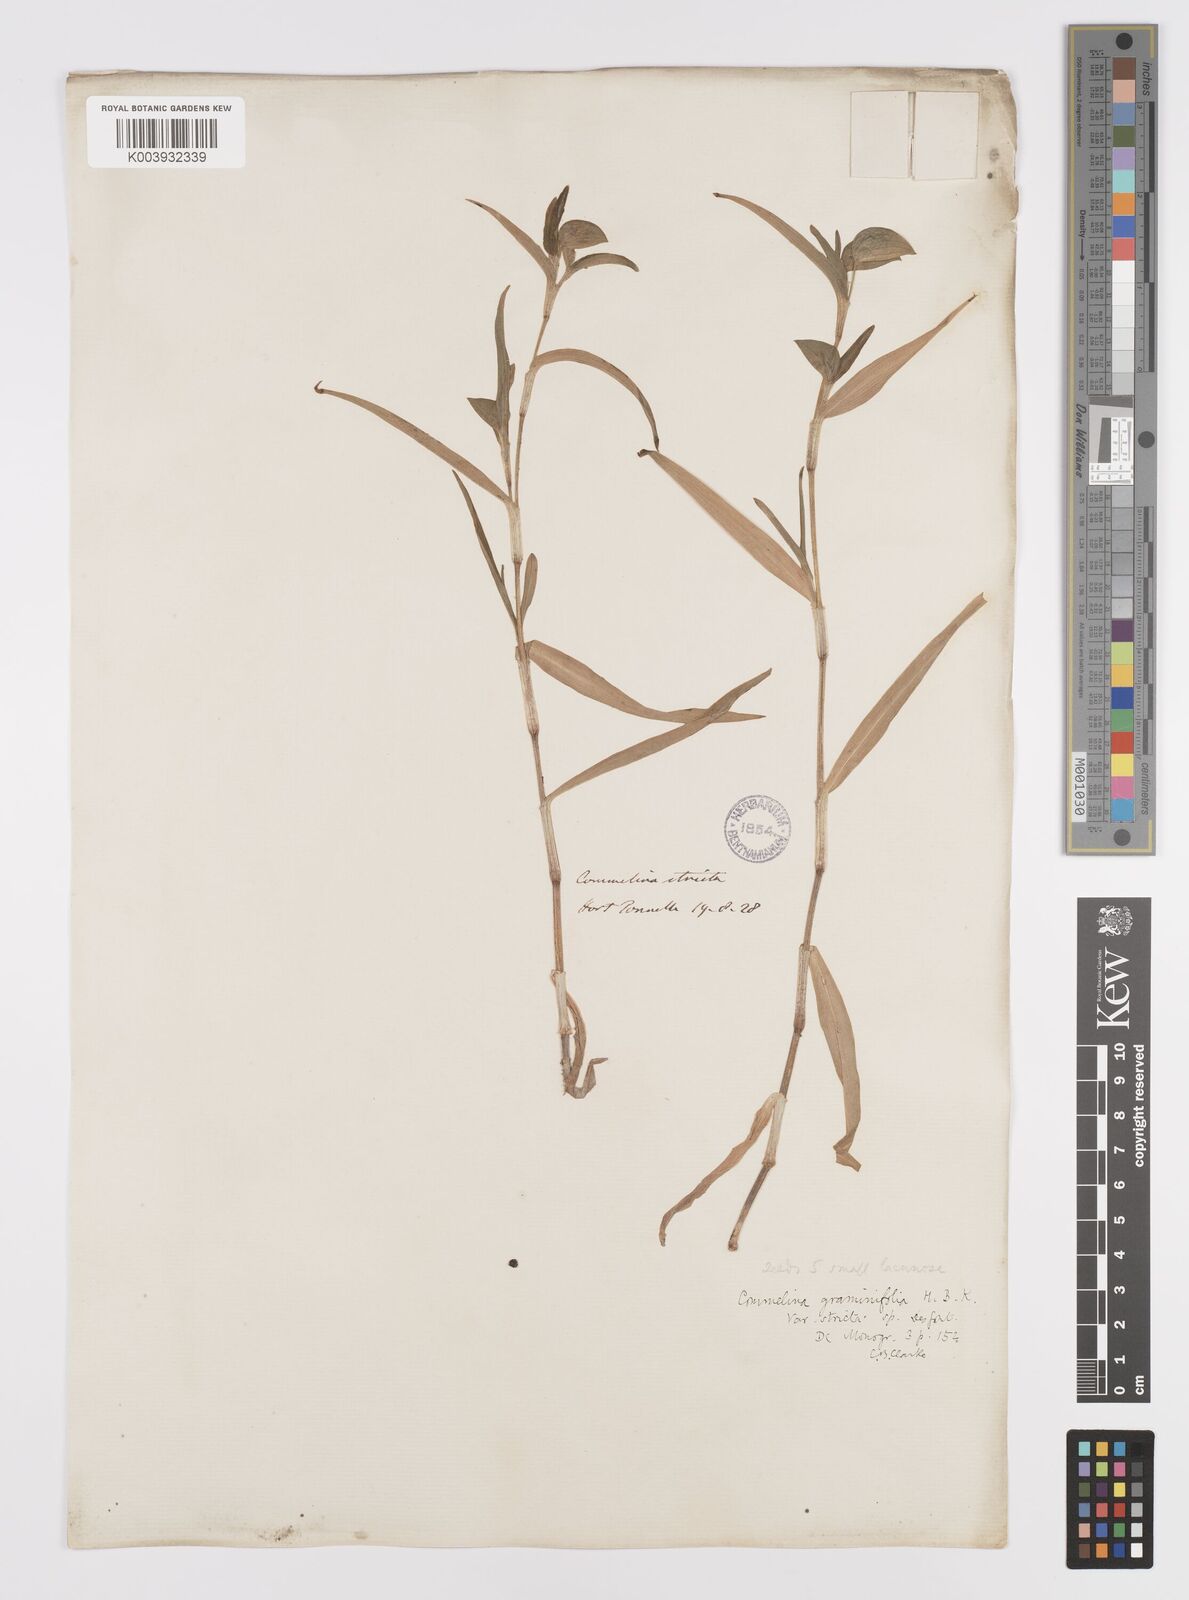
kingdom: Plantae
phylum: Tracheophyta
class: Liliopsida
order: Commelinales
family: Commelinaceae
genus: Commelina
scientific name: Commelina dianthifolia
